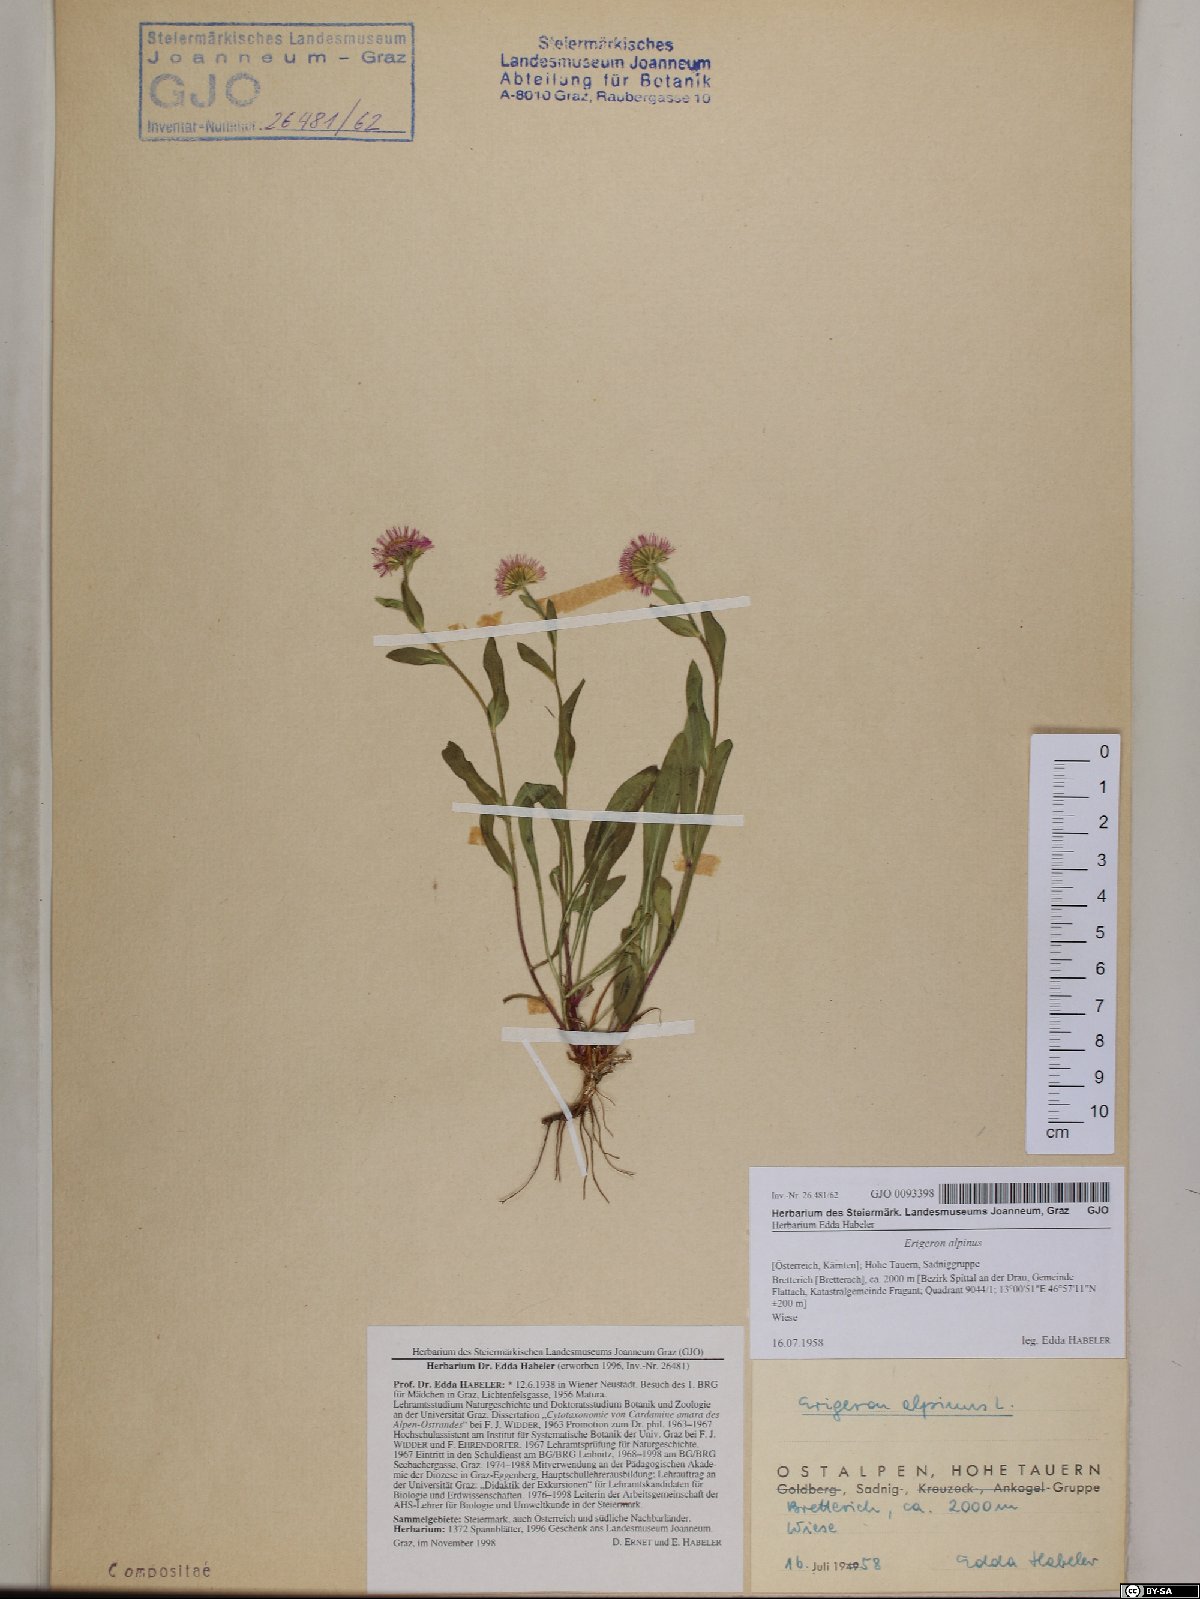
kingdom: Plantae
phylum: Tracheophyta
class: Magnoliopsida
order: Asterales
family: Asteraceae
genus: Erigeron
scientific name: Erigeron alpinus
